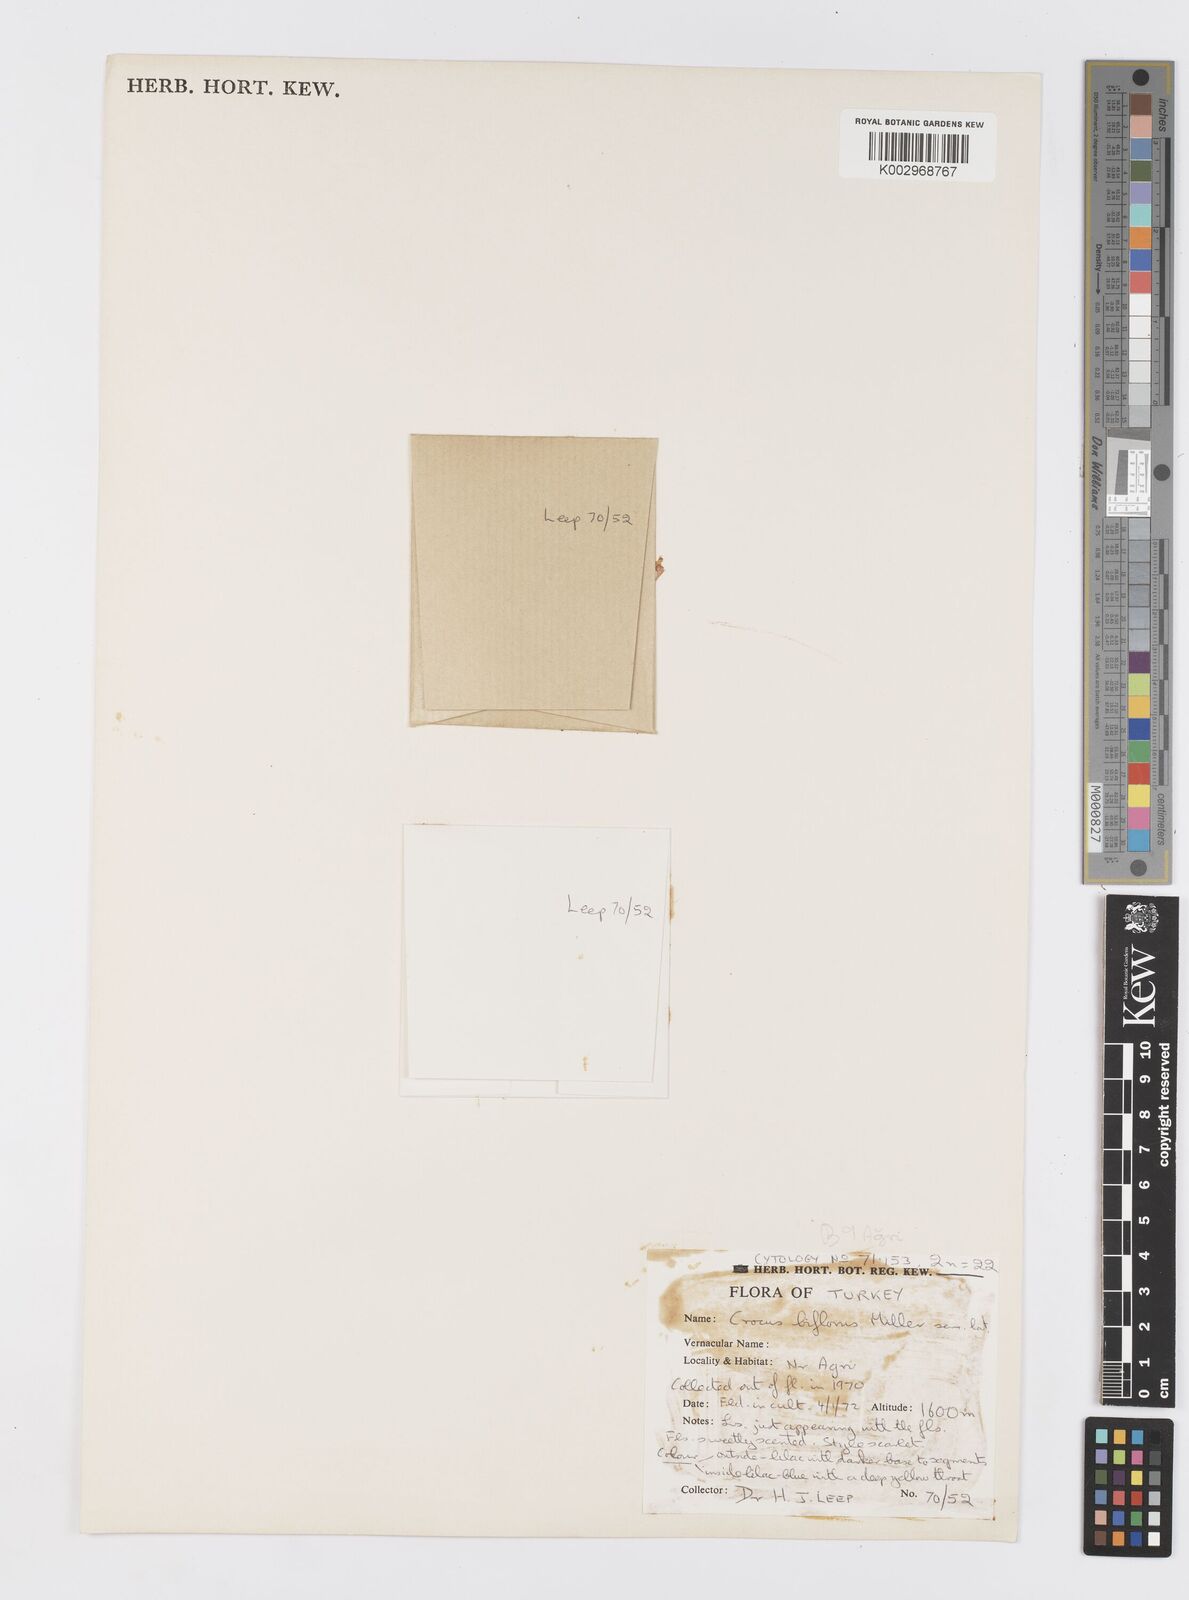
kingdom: Plantae
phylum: Tracheophyta
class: Liliopsida
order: Asparagales
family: Iridaceae
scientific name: Iridaceae
